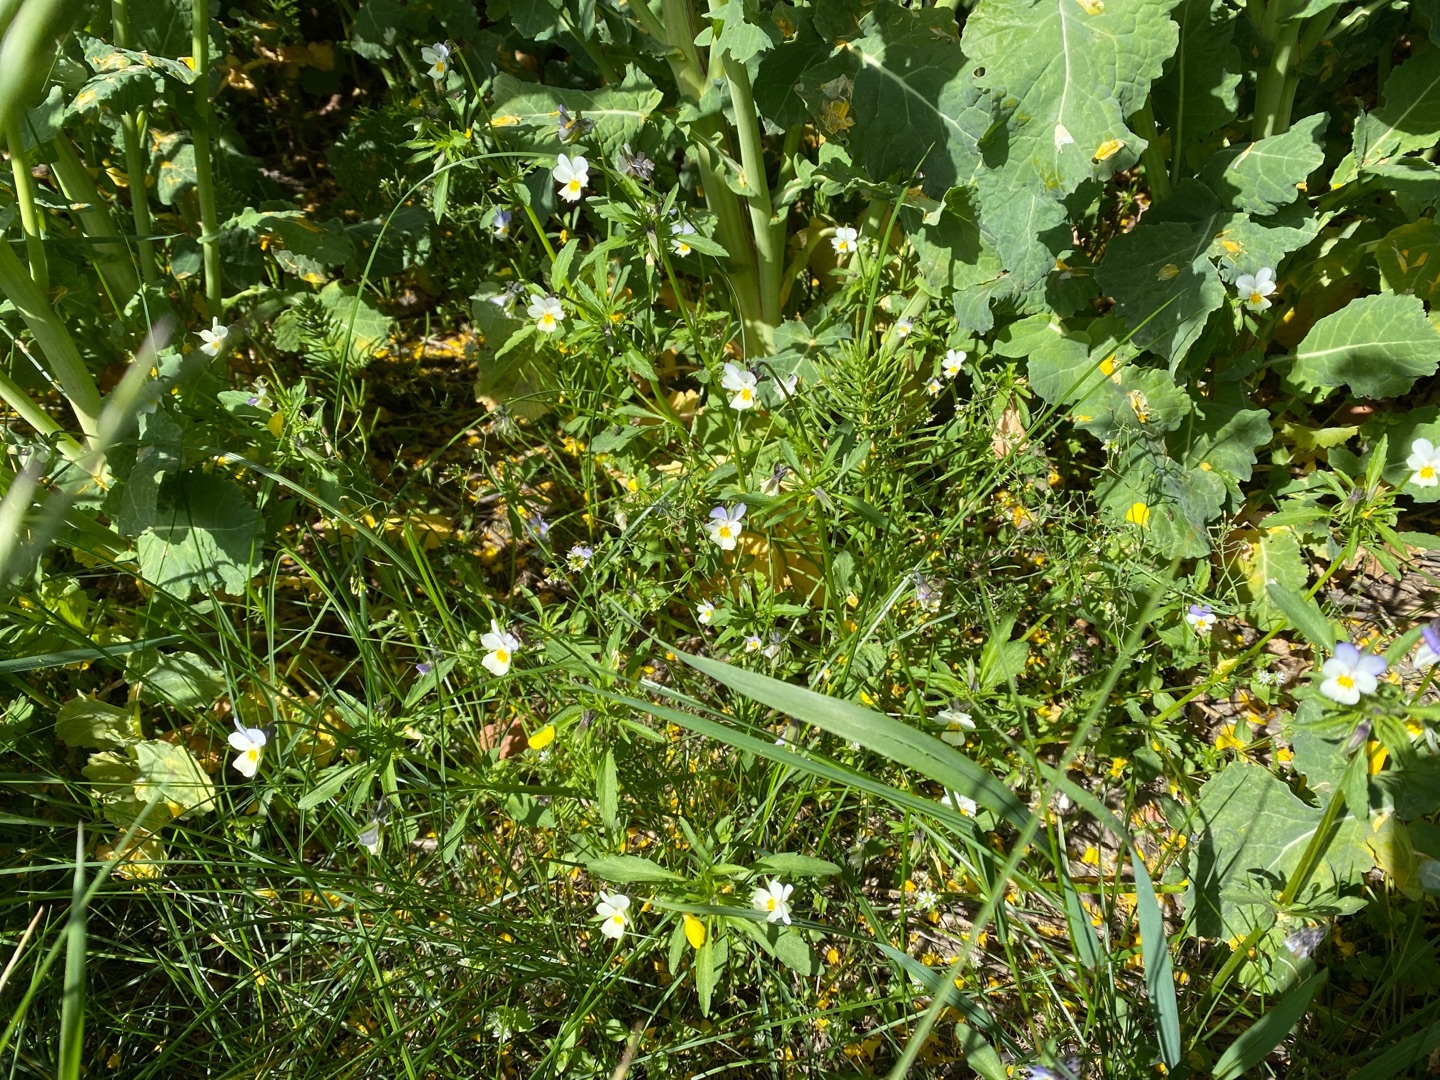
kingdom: Plantae
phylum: Tracheophyta
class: Magnoliopsida
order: Malpighiales
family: Violaceae
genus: Viola
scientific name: Viola arvensis
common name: Ager-stedmoderblomst
